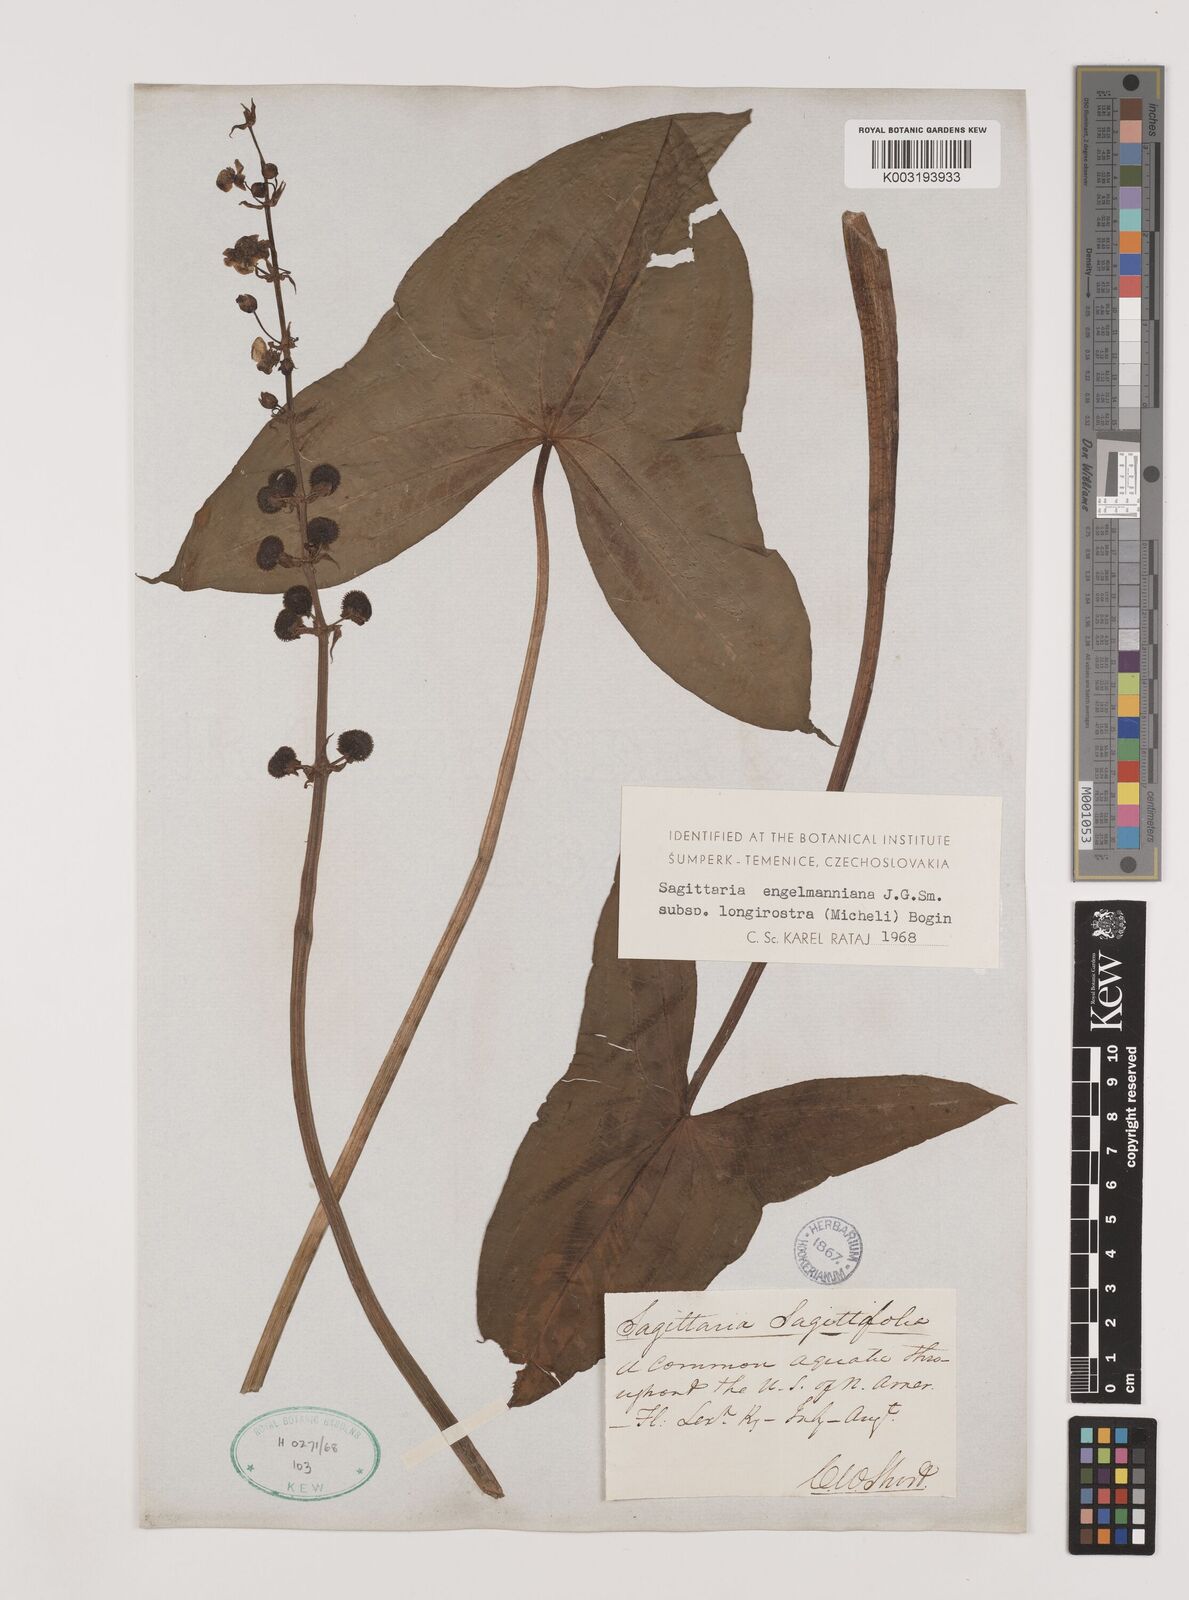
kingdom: Plantae
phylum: Tracheophyta
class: Liliopsida
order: Alismatales
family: Alismataceae
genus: Sagittaria
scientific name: Sagittaria engelmanniana
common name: Acid-water arrowhead
